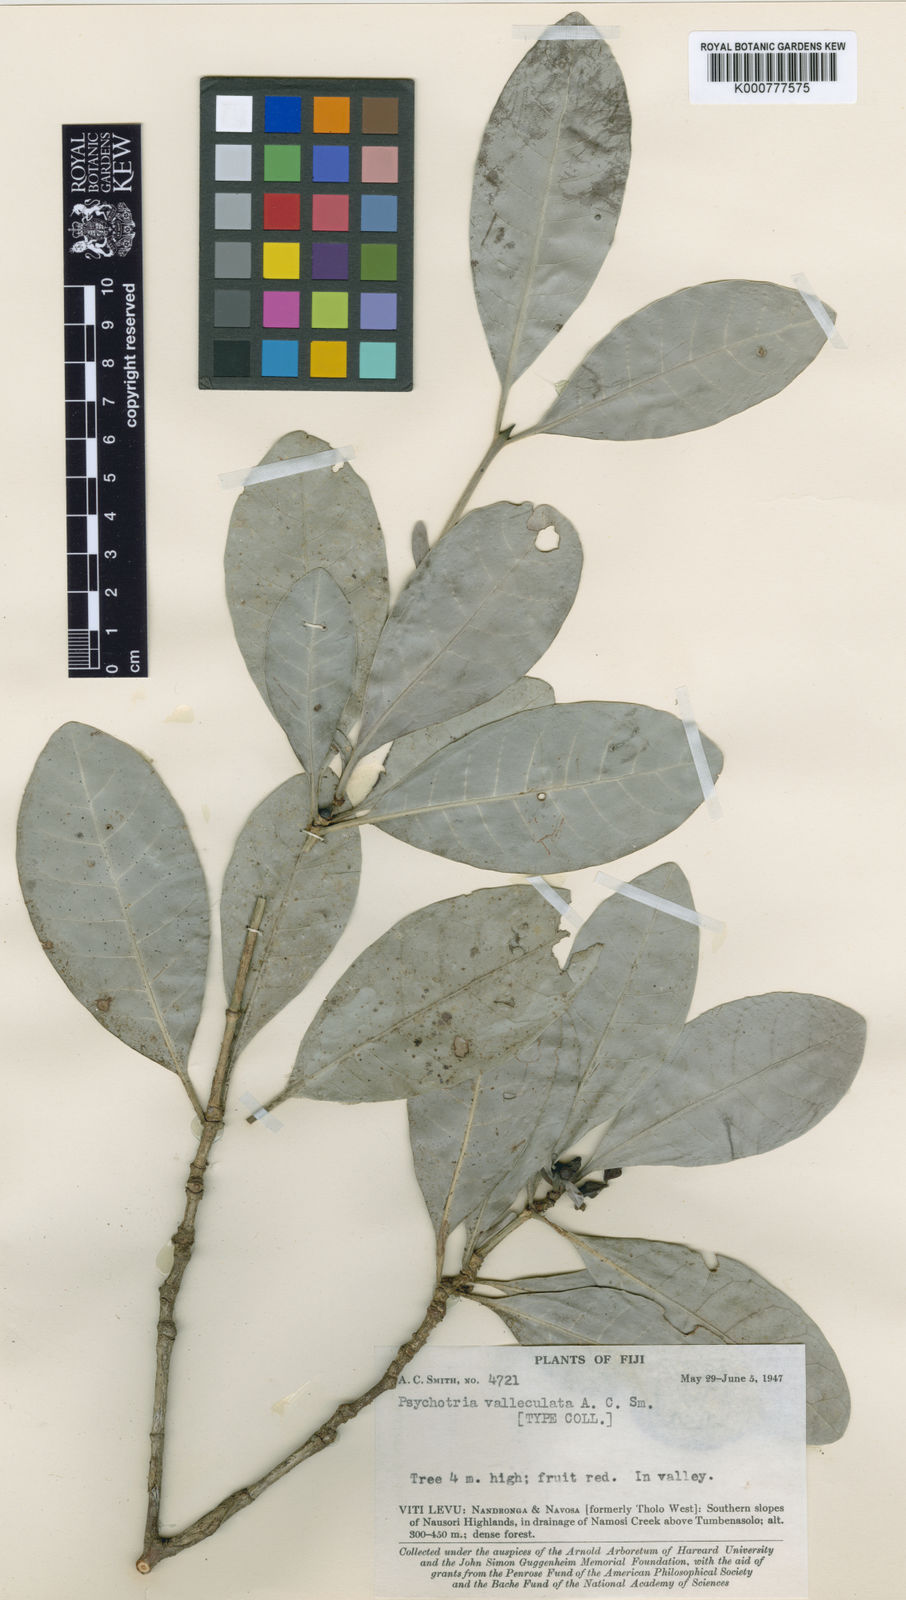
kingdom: Plantae
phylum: Tracheophyta
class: Magnoliopsida
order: Gentianales
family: Rubiaceae
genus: Psychotria
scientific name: Psychotria valleculata
